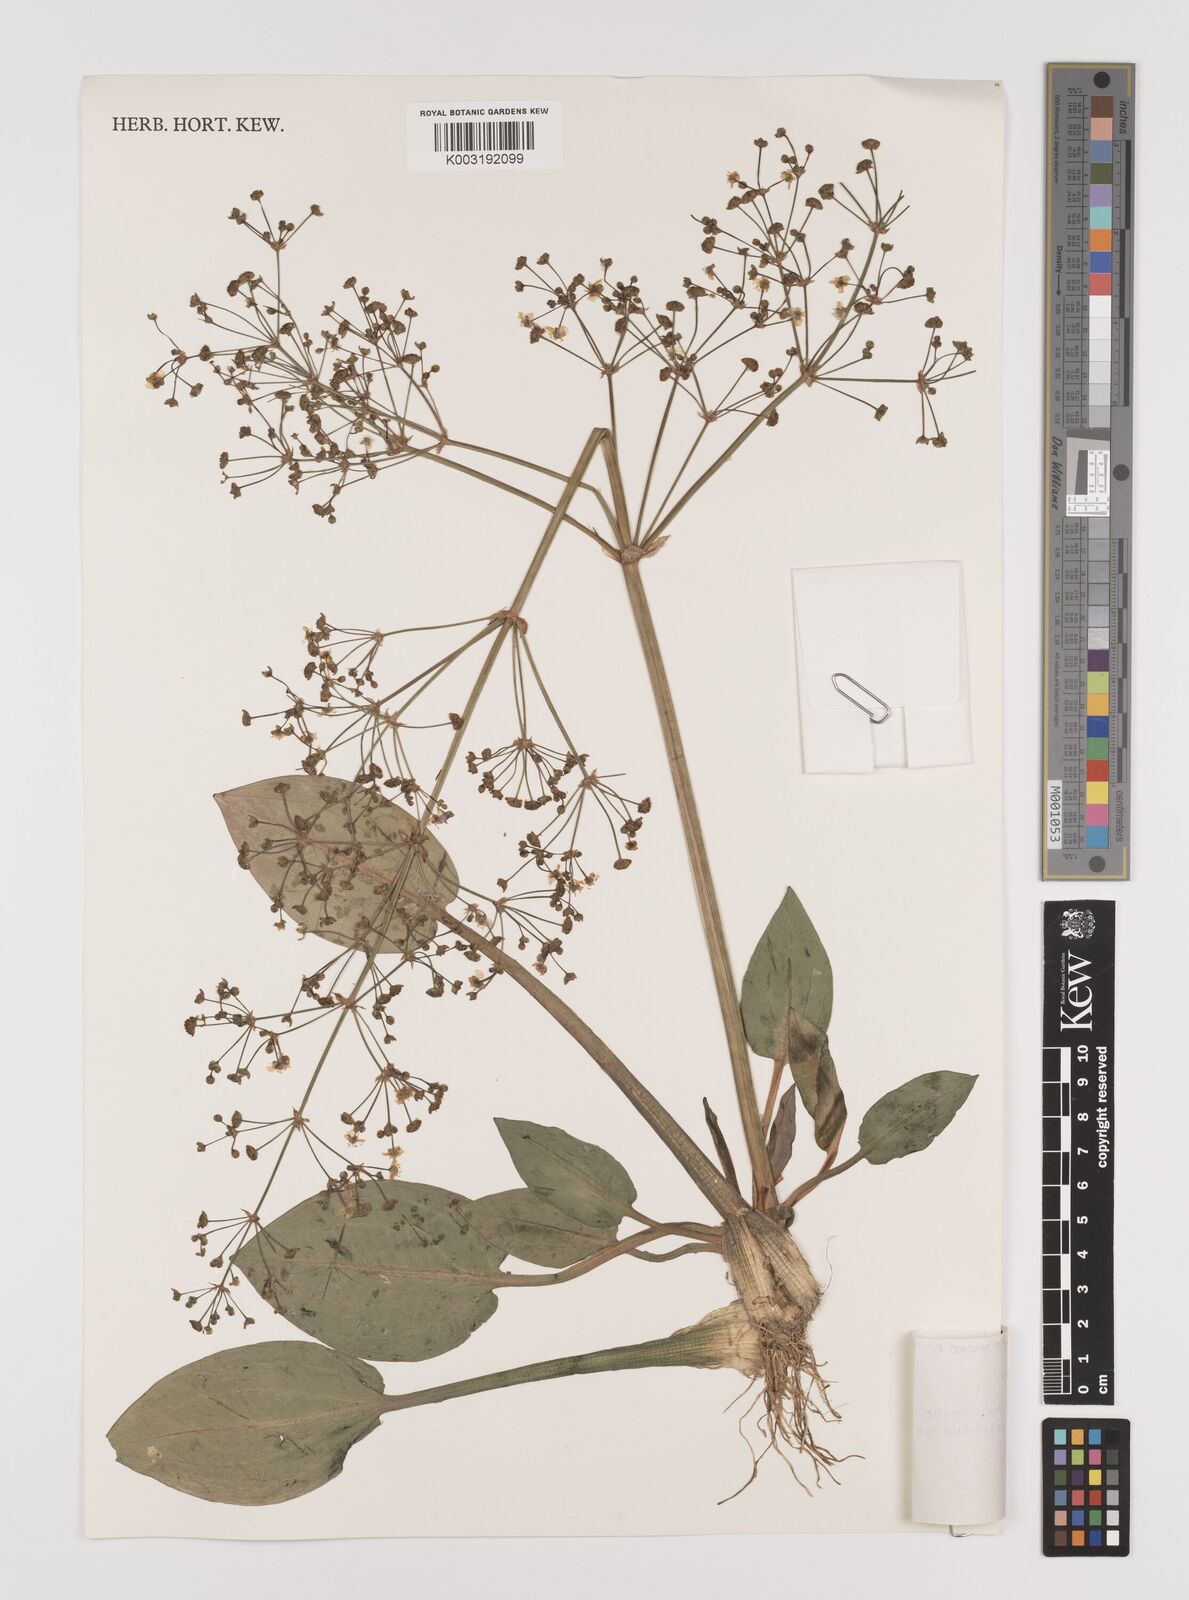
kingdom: Plantae
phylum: Tracheophyta
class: Liliopsida
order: Alismatales
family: Alismataceae
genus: Alisma
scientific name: Alisma plantago-aquatica
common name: Water-plantain
